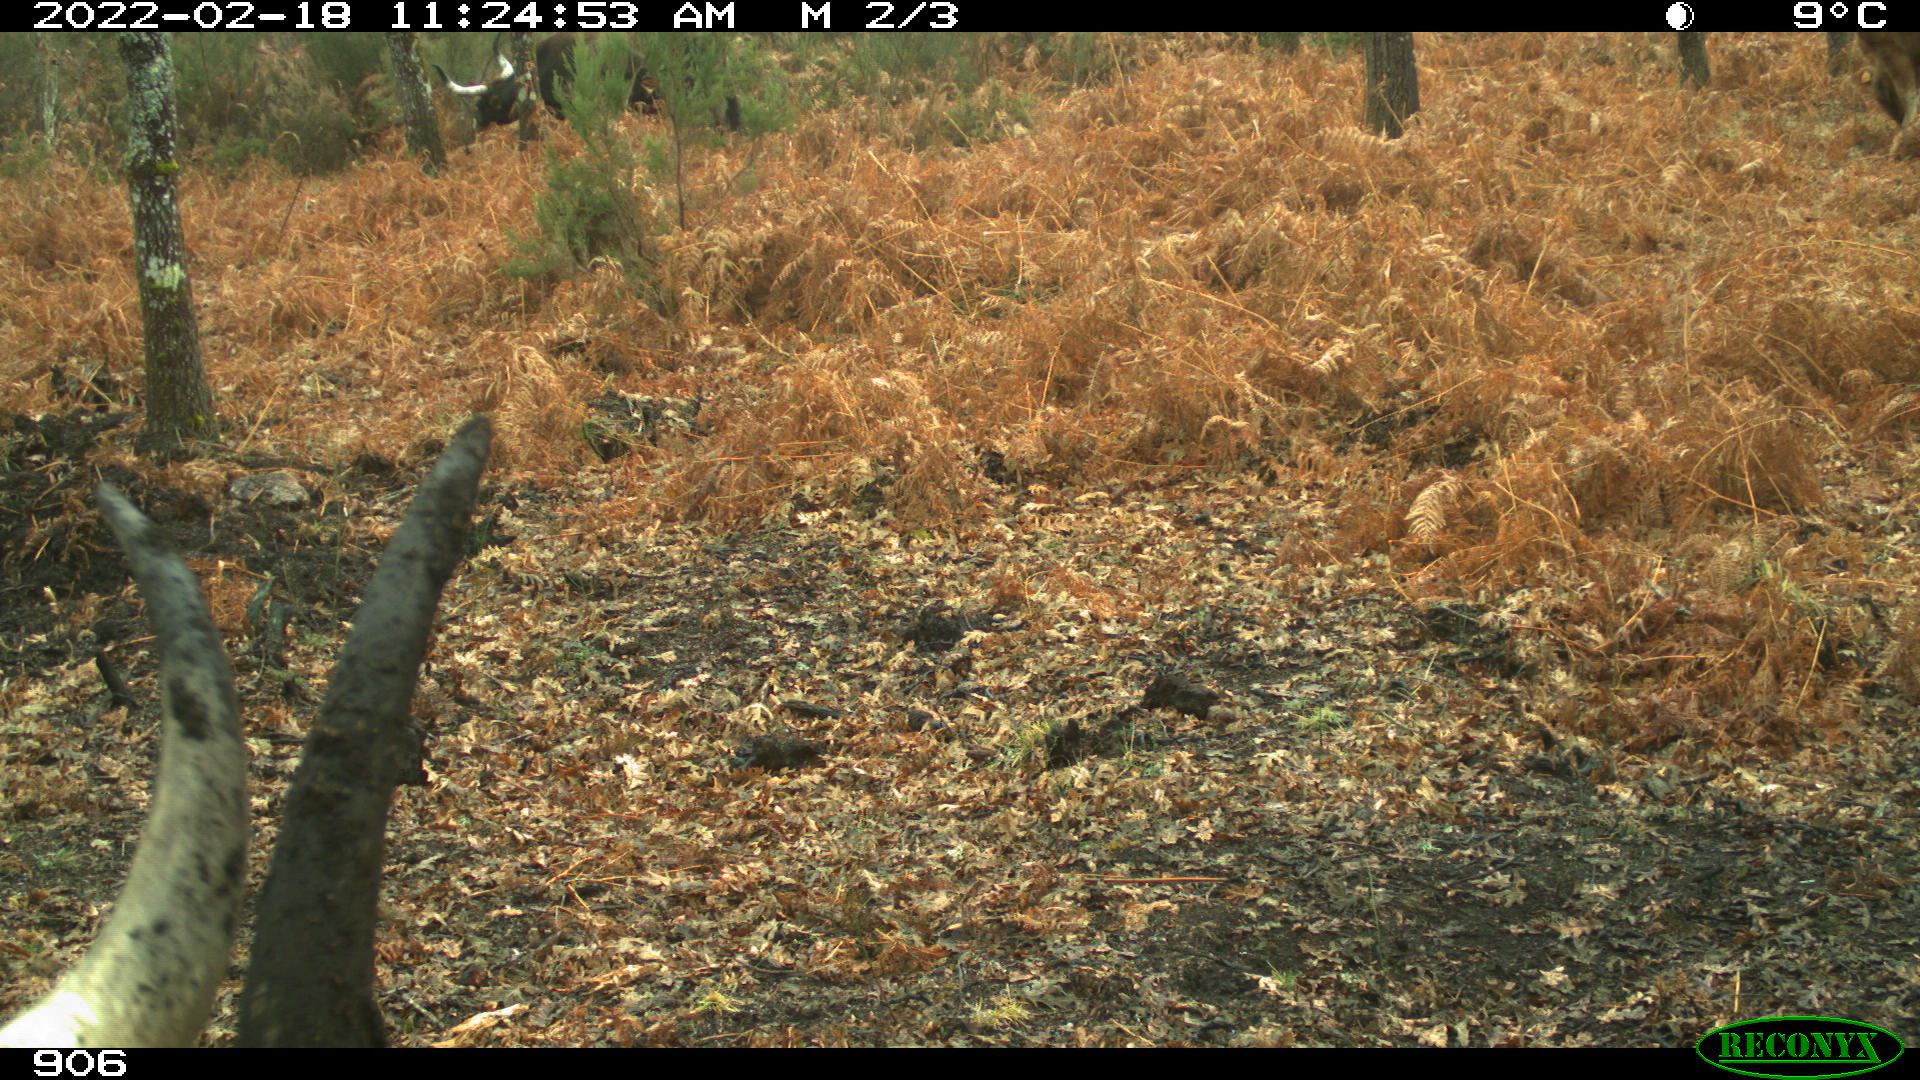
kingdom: Animalia
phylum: Chordata
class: Mammalia
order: Artiodactyla
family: Bovidae
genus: Bos
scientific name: Bos taurus
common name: Domesticated cattle
